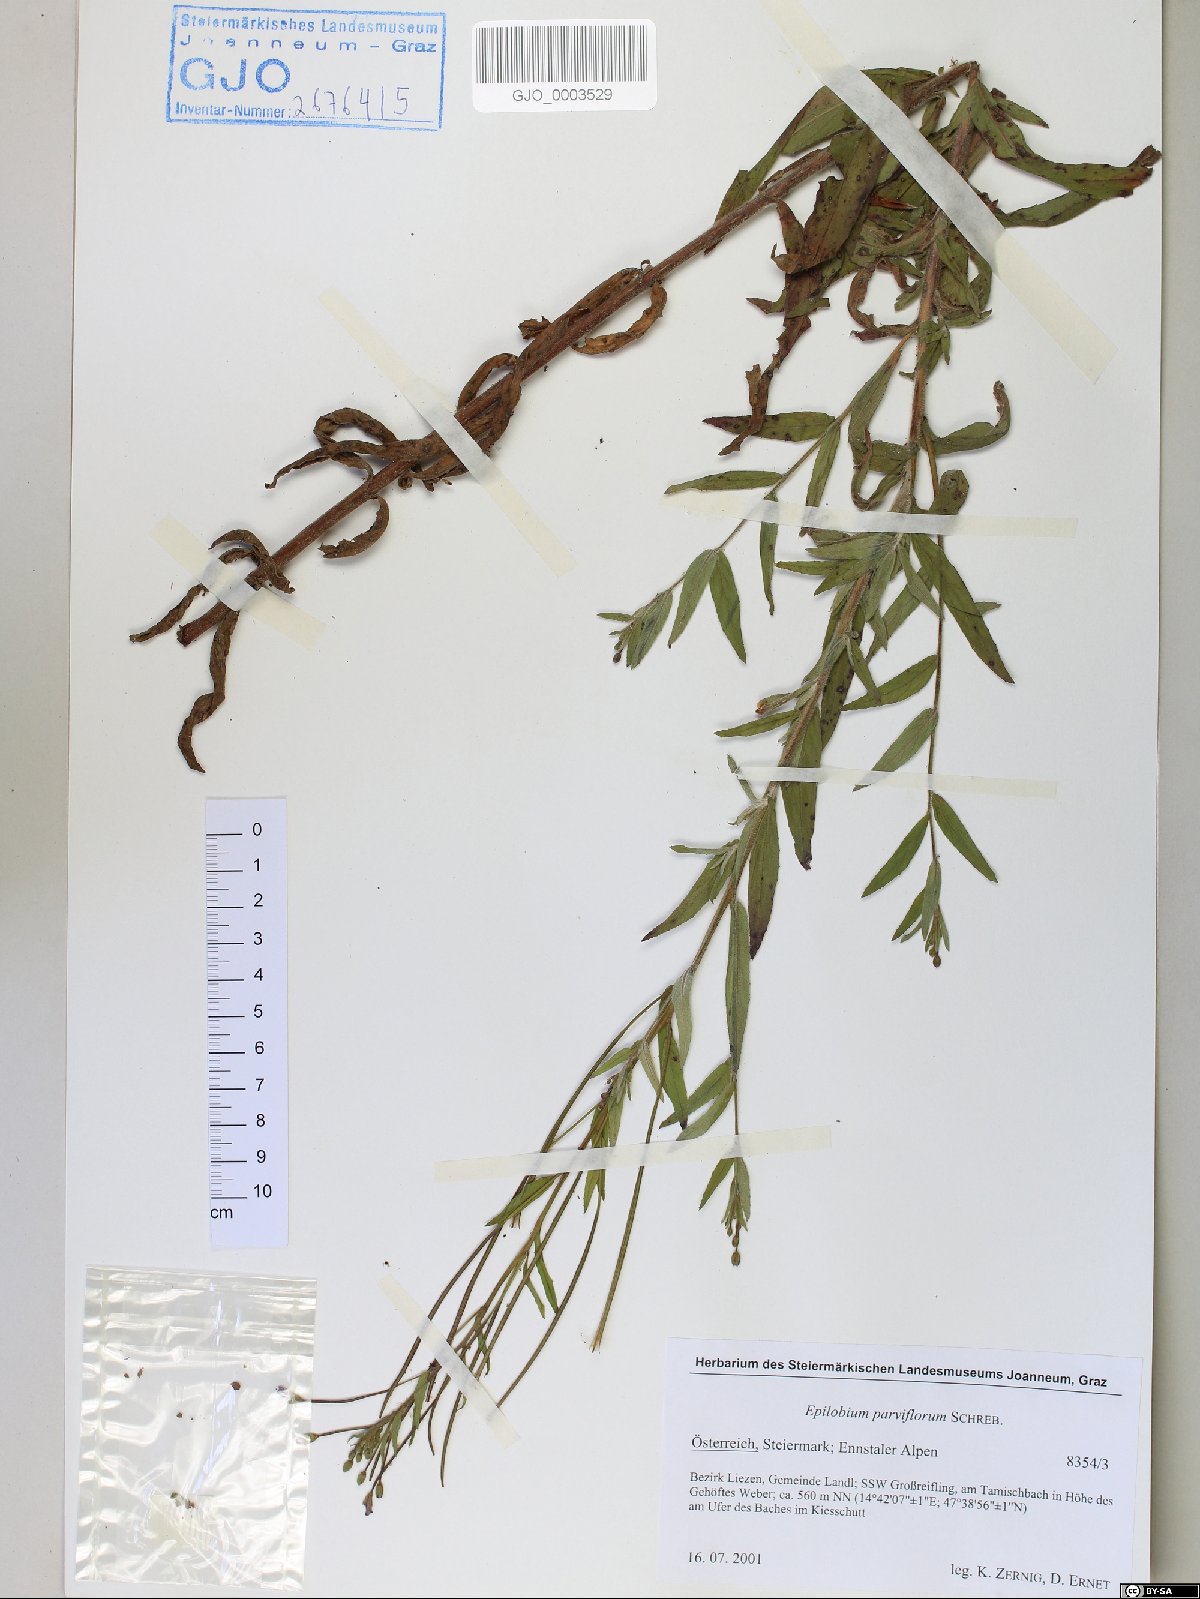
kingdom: Plantae
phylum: Tracheophyta
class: Magnoliopsida
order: Myrtales
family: Onagraceae
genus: Epilobium
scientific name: Epilobium parviflorum
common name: Hoary willowherb
